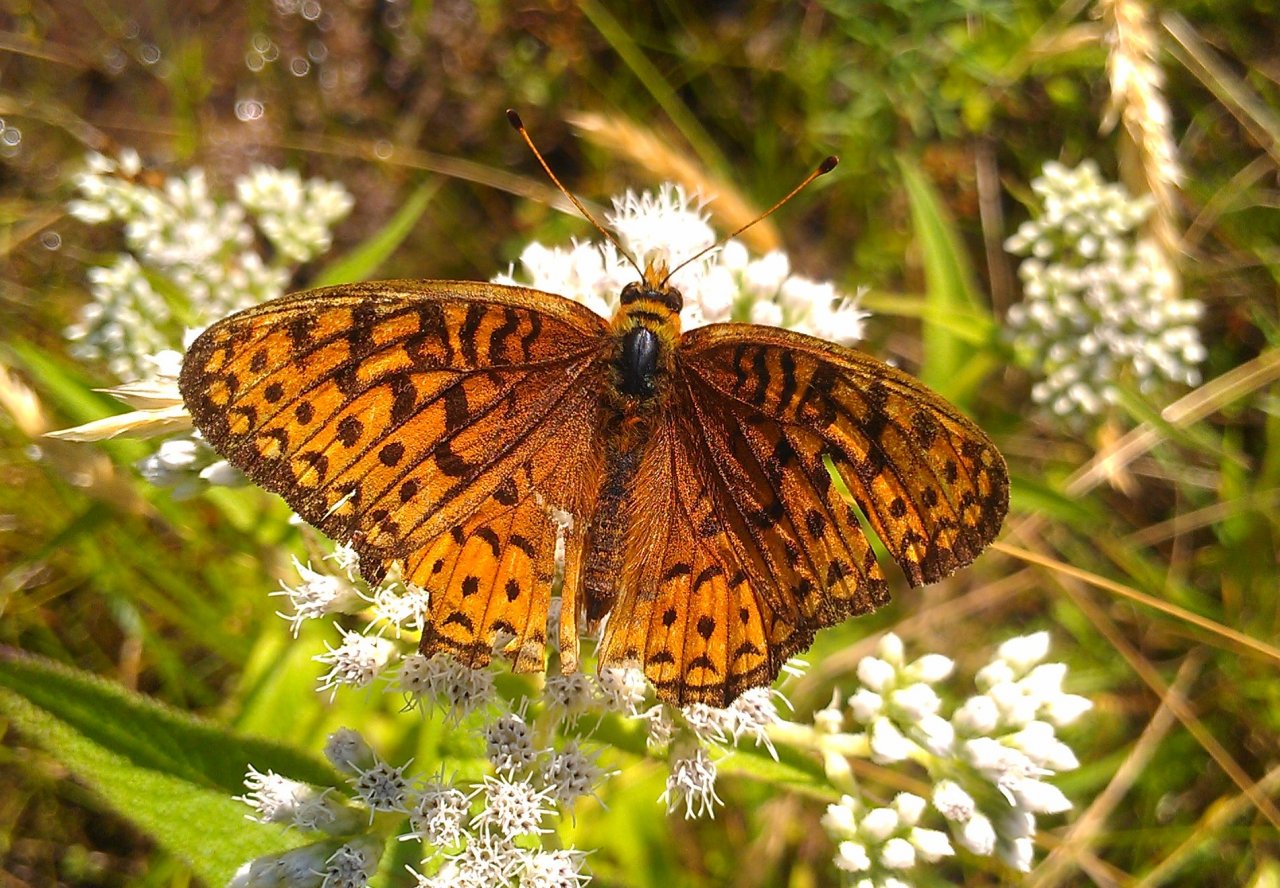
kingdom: Animalia
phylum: Arthropoda
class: Insecta
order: Lepidoptera
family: Nymphalidae
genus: Speyeria
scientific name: Speyeria atlantis
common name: Atlantis Fritillary
